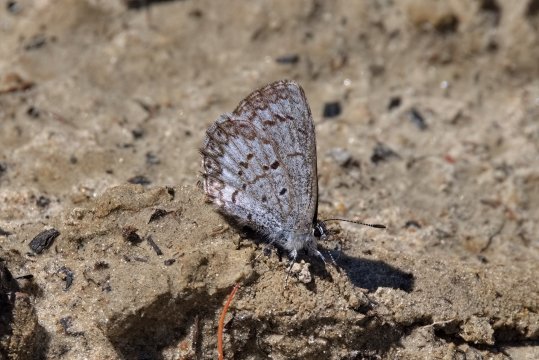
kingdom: Animalia
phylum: Arthropoda
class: Insecta
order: Lepidoptera
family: Lycaenidae
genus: Celastrina
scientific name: Celastrina lucia
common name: Northern Spring Azure
